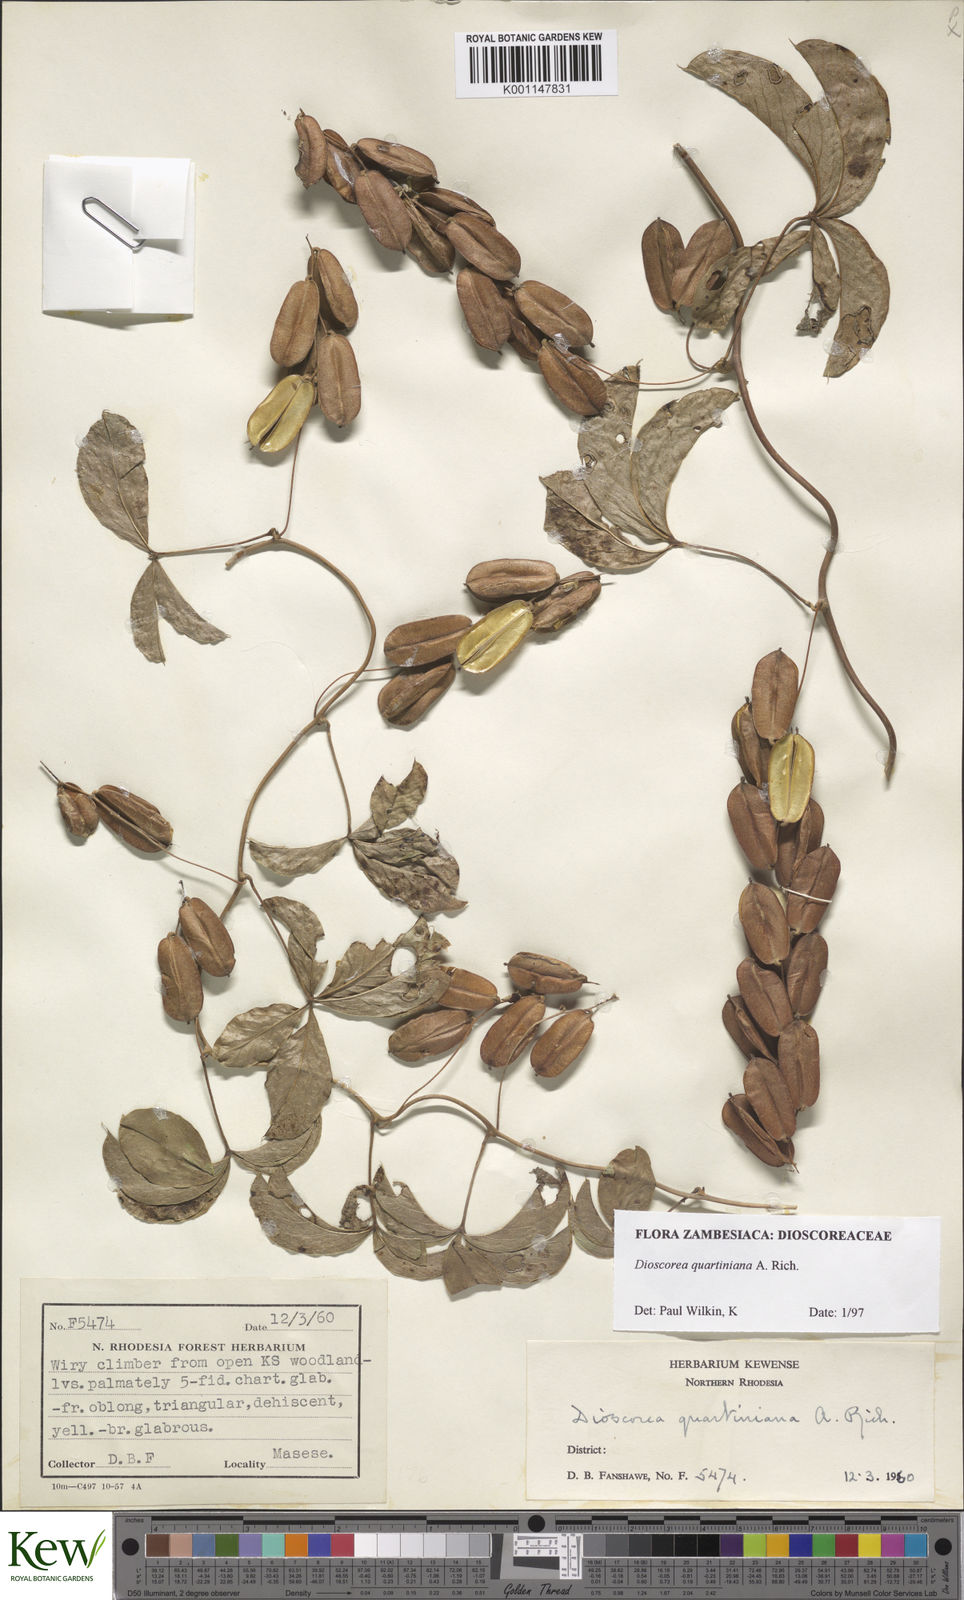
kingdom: Plantae
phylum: Tracheophyta
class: Liliopsida
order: Dioscoreales
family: Dioscoreaceae
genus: Dioscorea
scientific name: Dioscorea quartiniana
